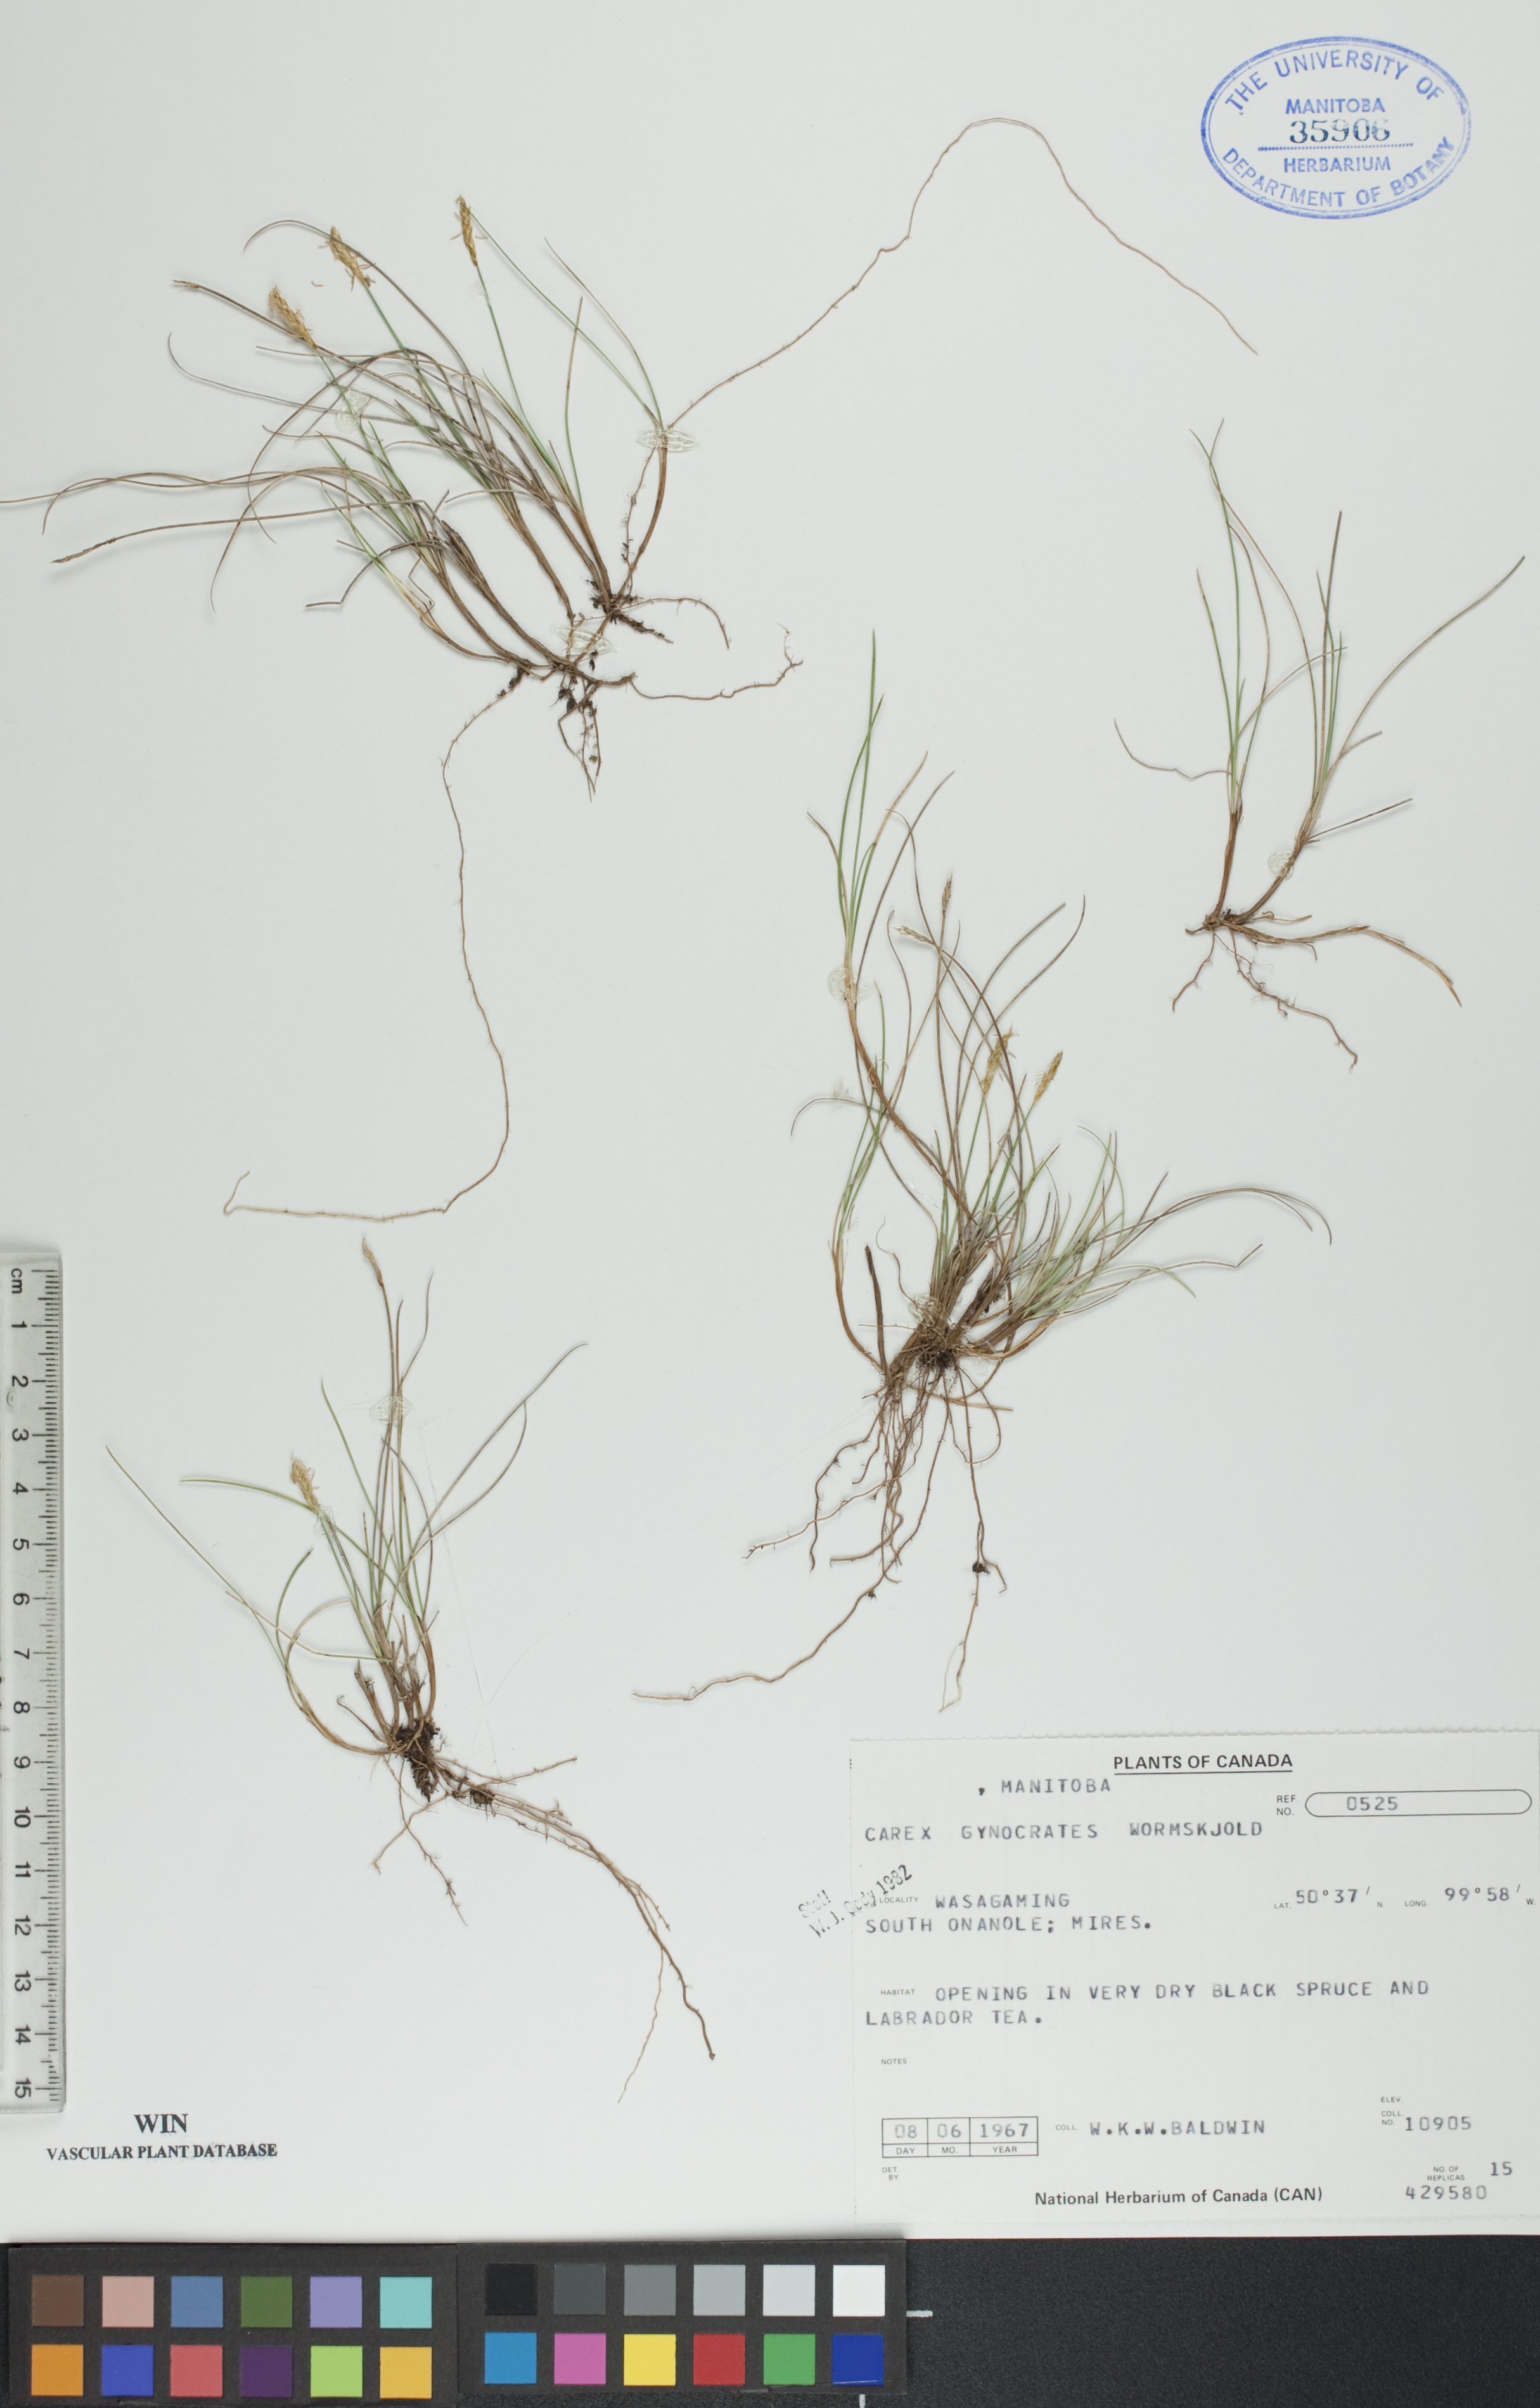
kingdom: Plantae
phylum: Tracheophyta
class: Liliopsida
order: Poales
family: Cyperaceae
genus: Carex
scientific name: Carex nardina
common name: Nard sedge
